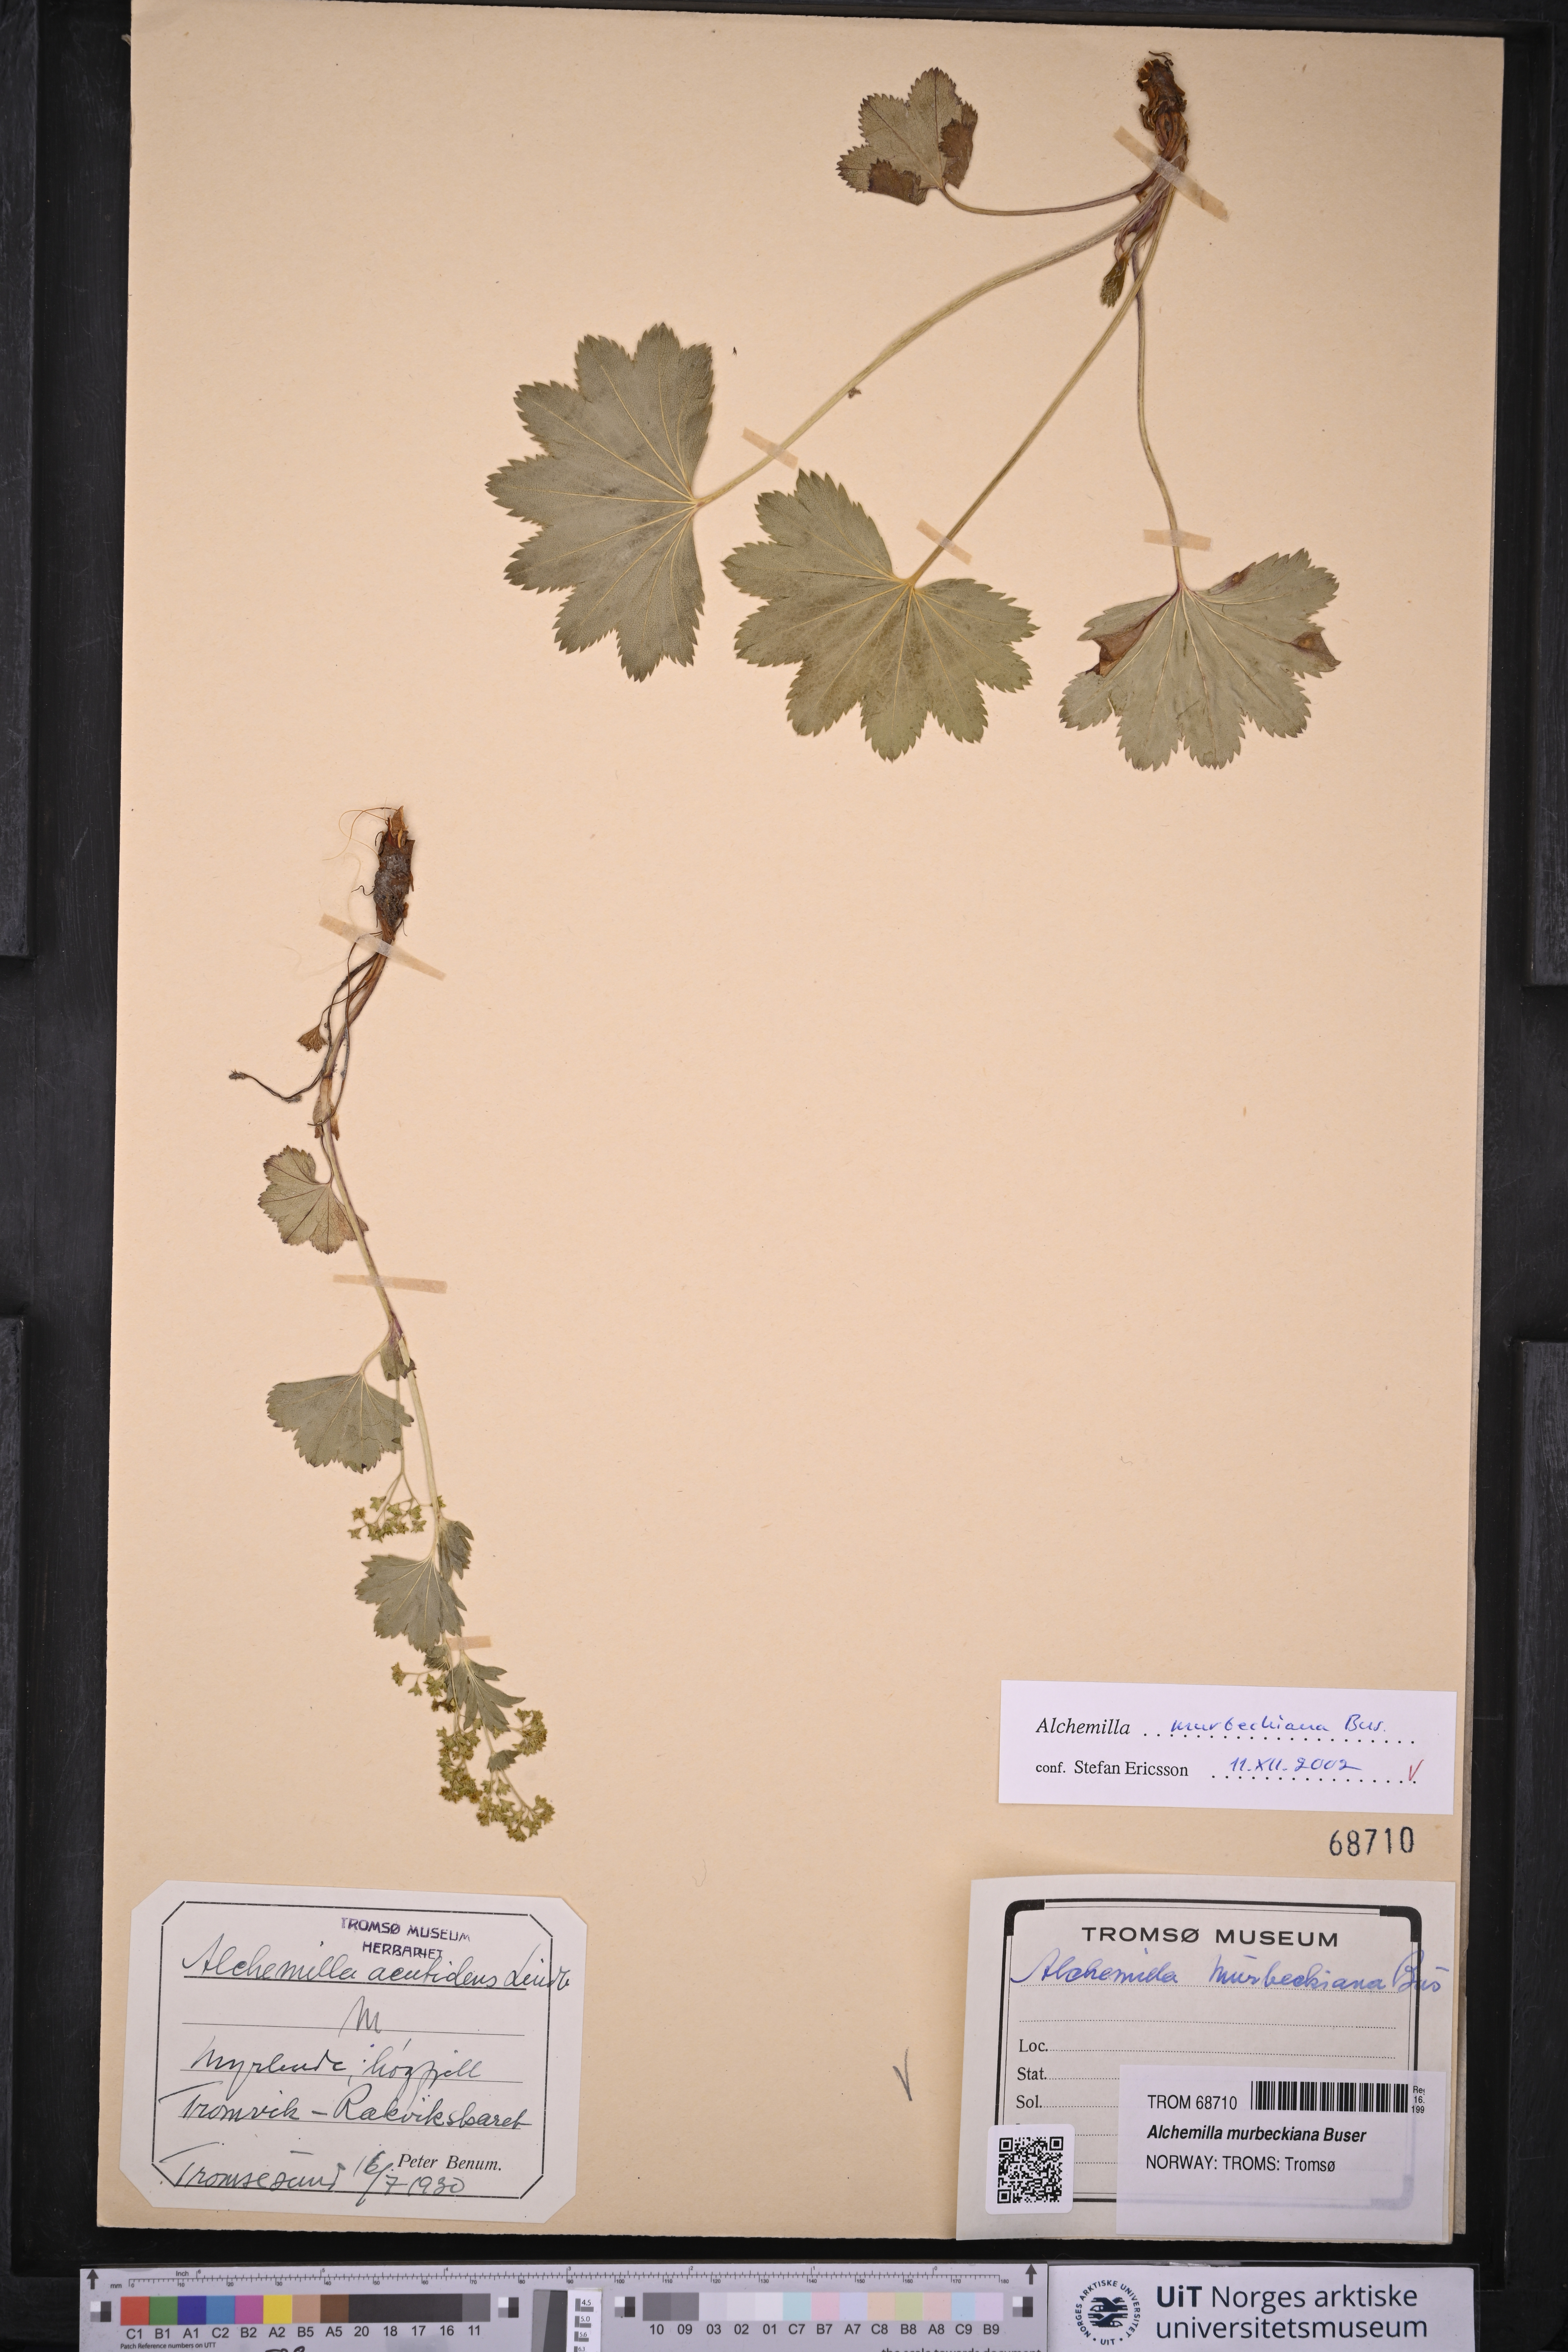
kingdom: Plantae
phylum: Tracheophyta
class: Magnoliopsida
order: Rosales
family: Rosaceae
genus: Alchemilla
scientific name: Alchemilla acutidens
